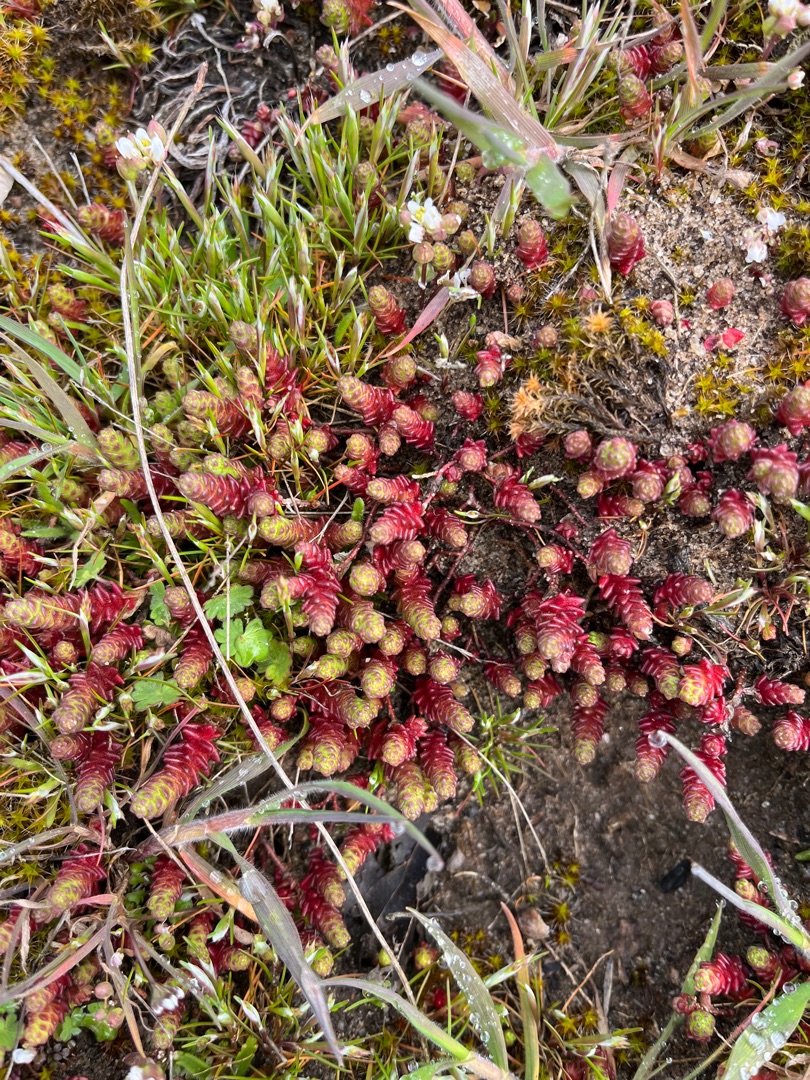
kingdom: Plantae
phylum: Tracheophyta
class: Magnoliopsida
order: Saxifragales
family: Crassulaceae
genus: Sedum
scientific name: Sedum acre
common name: Bidende stenurt
